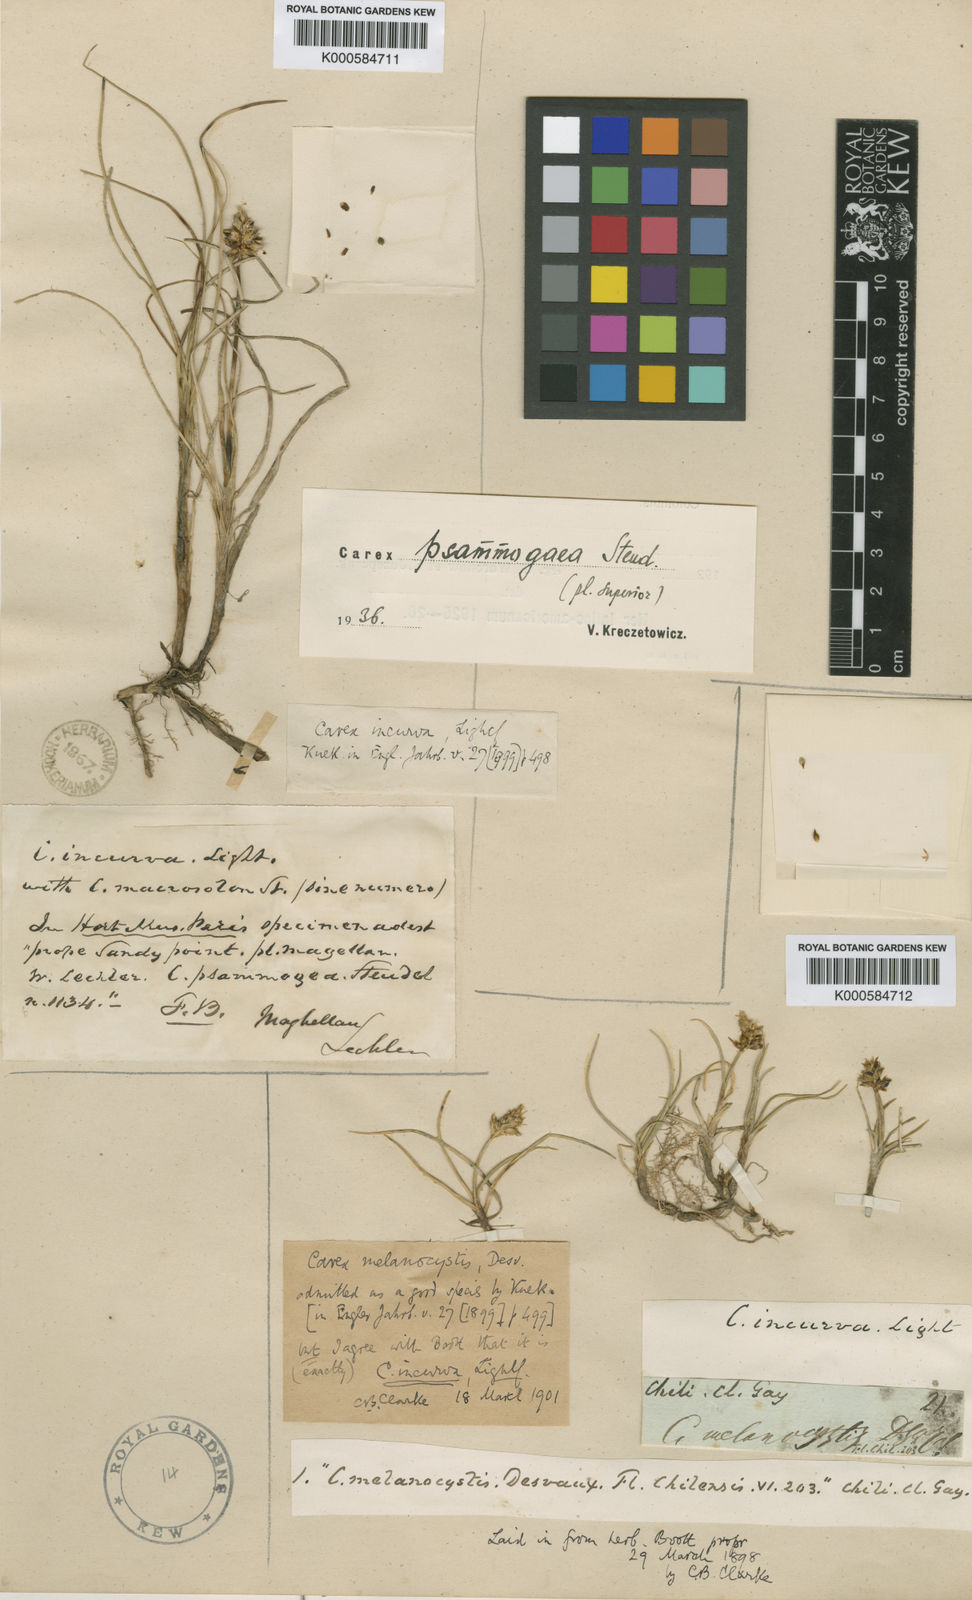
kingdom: Plantae
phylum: Tracheophyta
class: Liliopsida
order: Poales
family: Cyperaceae
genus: Carex
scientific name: Carex melanocystis
